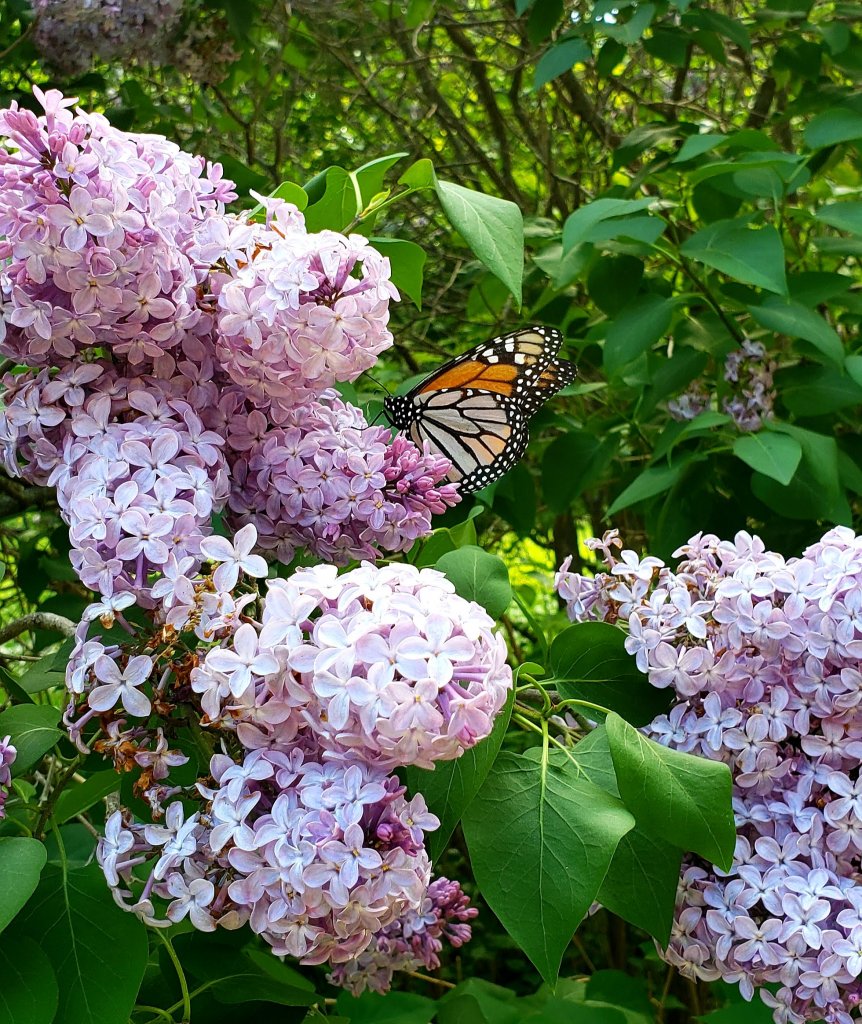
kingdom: Animalia
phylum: Arthropoda
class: Insecta
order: Lepidoptera
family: Nymphalidae
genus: Danaus
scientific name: Danaus plexippus
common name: Monarch
